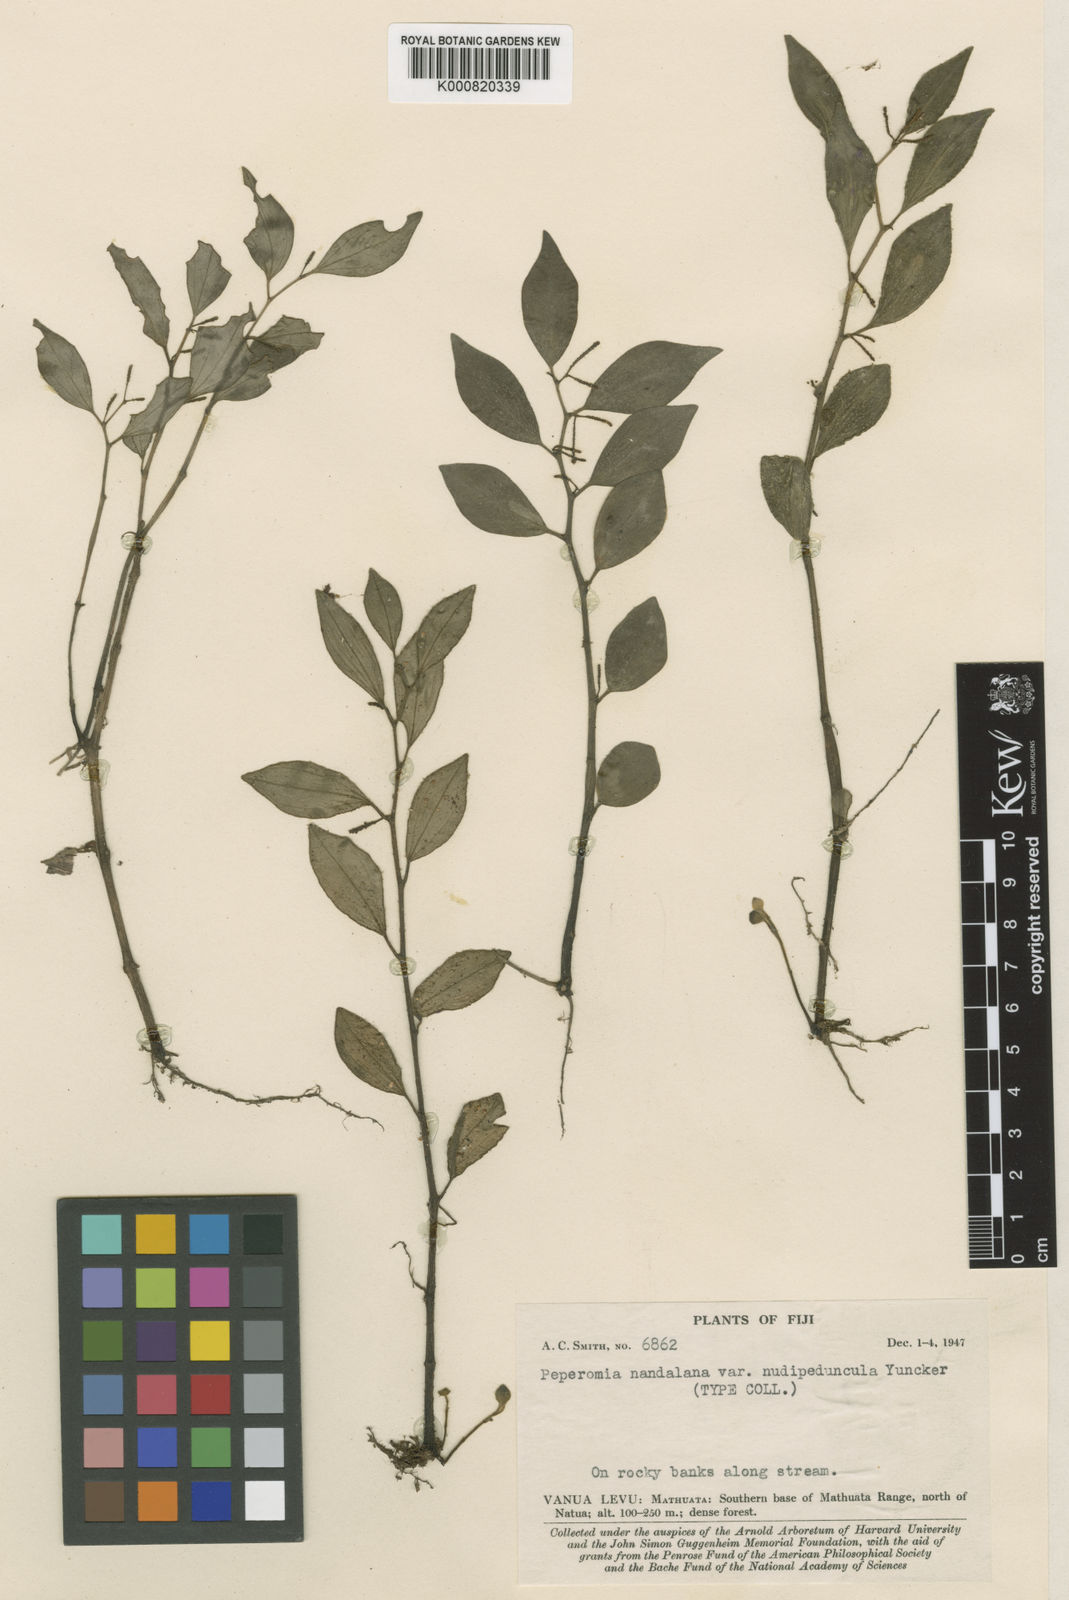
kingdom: Plantae
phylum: Tracheophyta
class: Magnoliopsida
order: Piperales
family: Piperaceae
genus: Peperomia
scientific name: Peperomia nandalana
